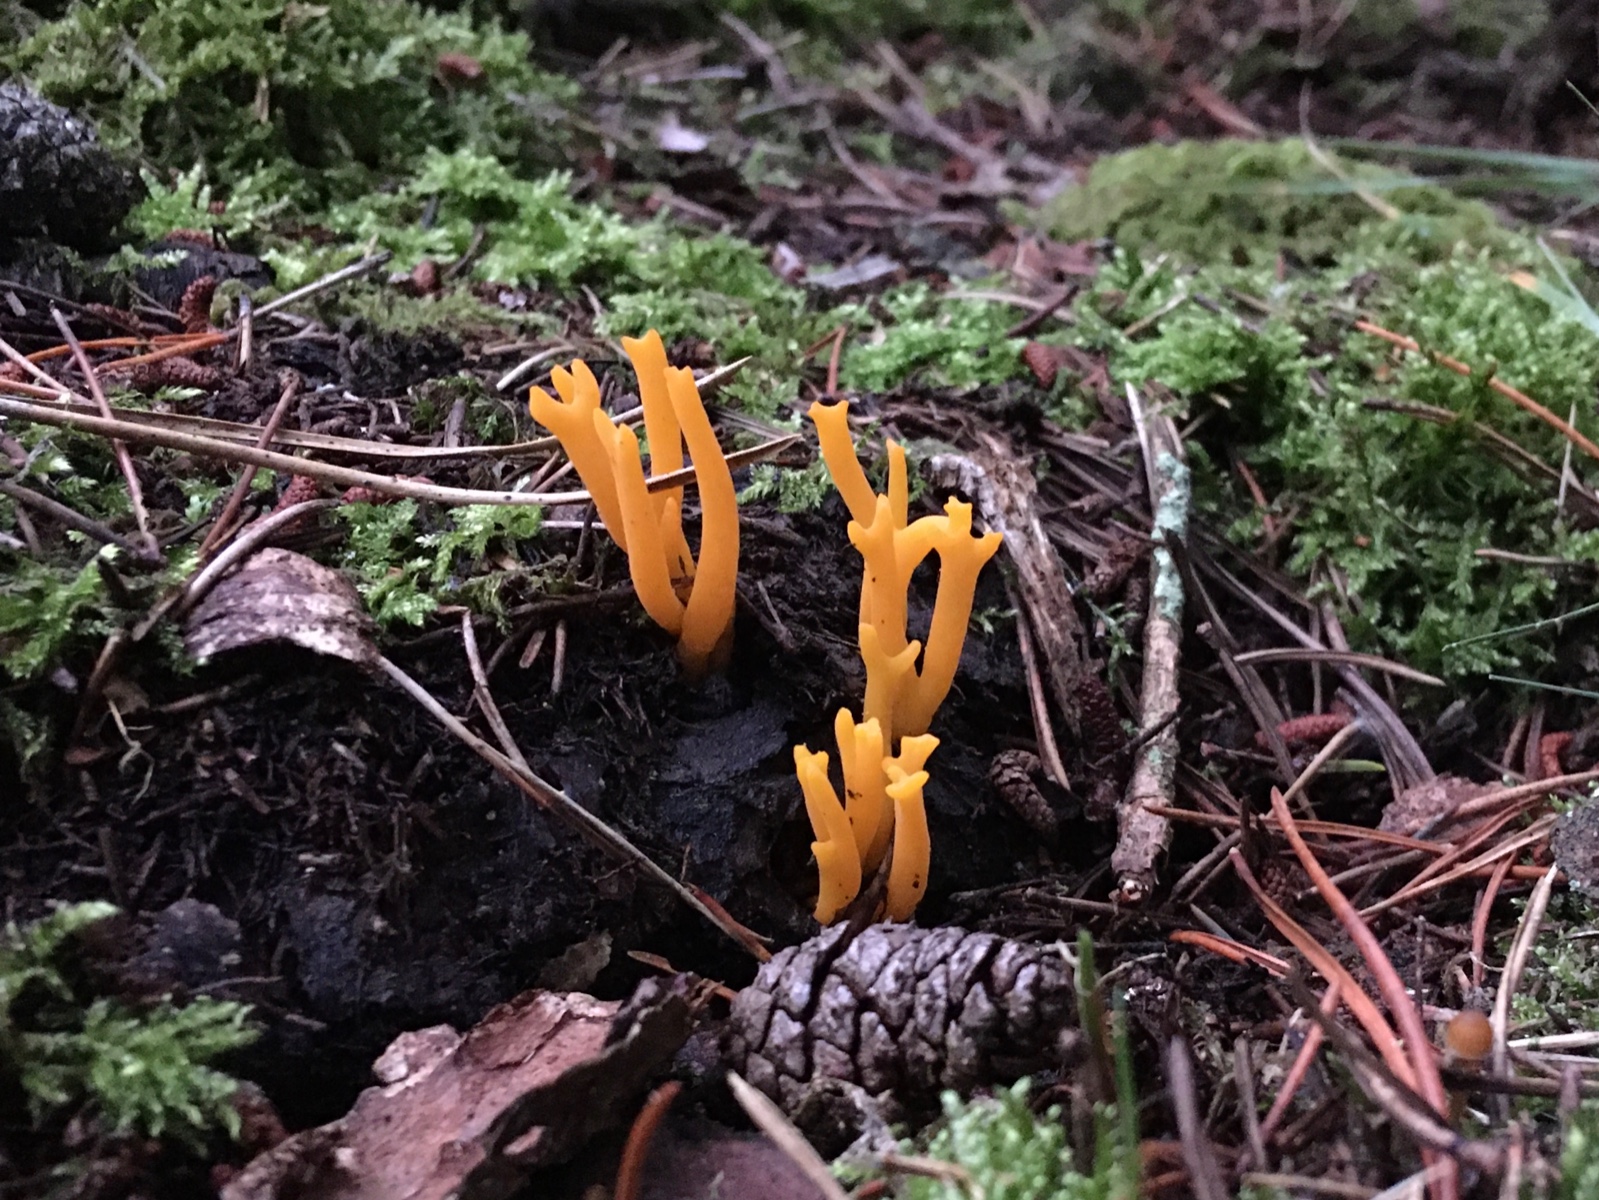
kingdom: Fungi
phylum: Basidiomycota
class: Dacrymycetes
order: Dacrymycetales
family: Dacrymycetaceae
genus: Calocera
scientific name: Calocera viscosa
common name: almindelig guldgaffel
